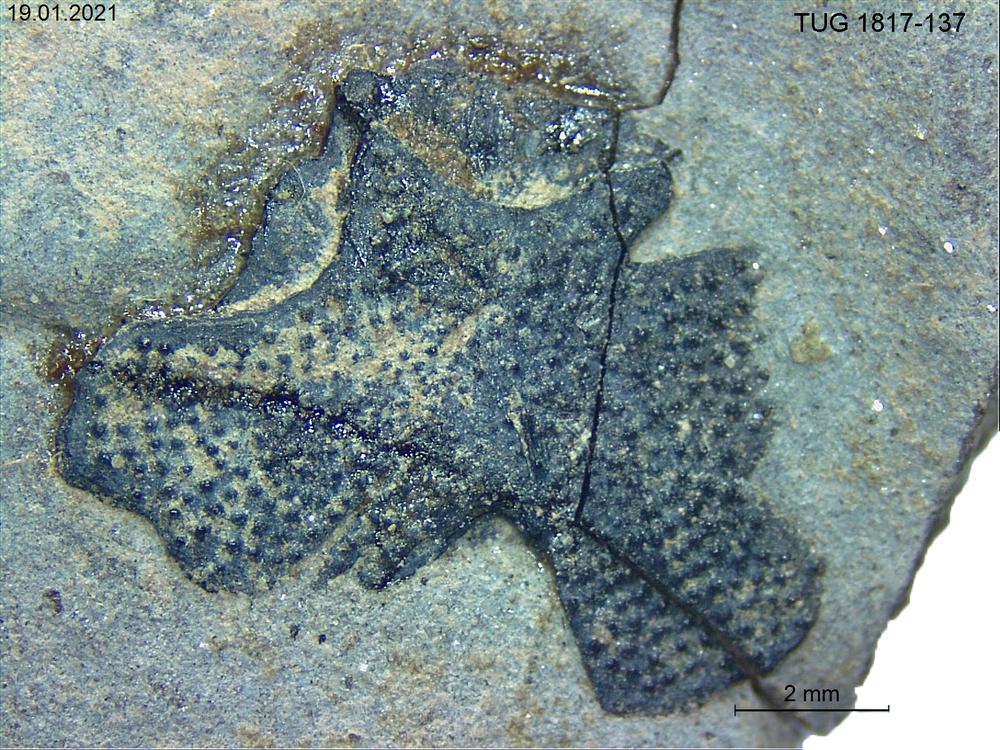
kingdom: Animalia
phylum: Chordata
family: Coccosteidae
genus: Millerosteus
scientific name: Millerosteus minor
